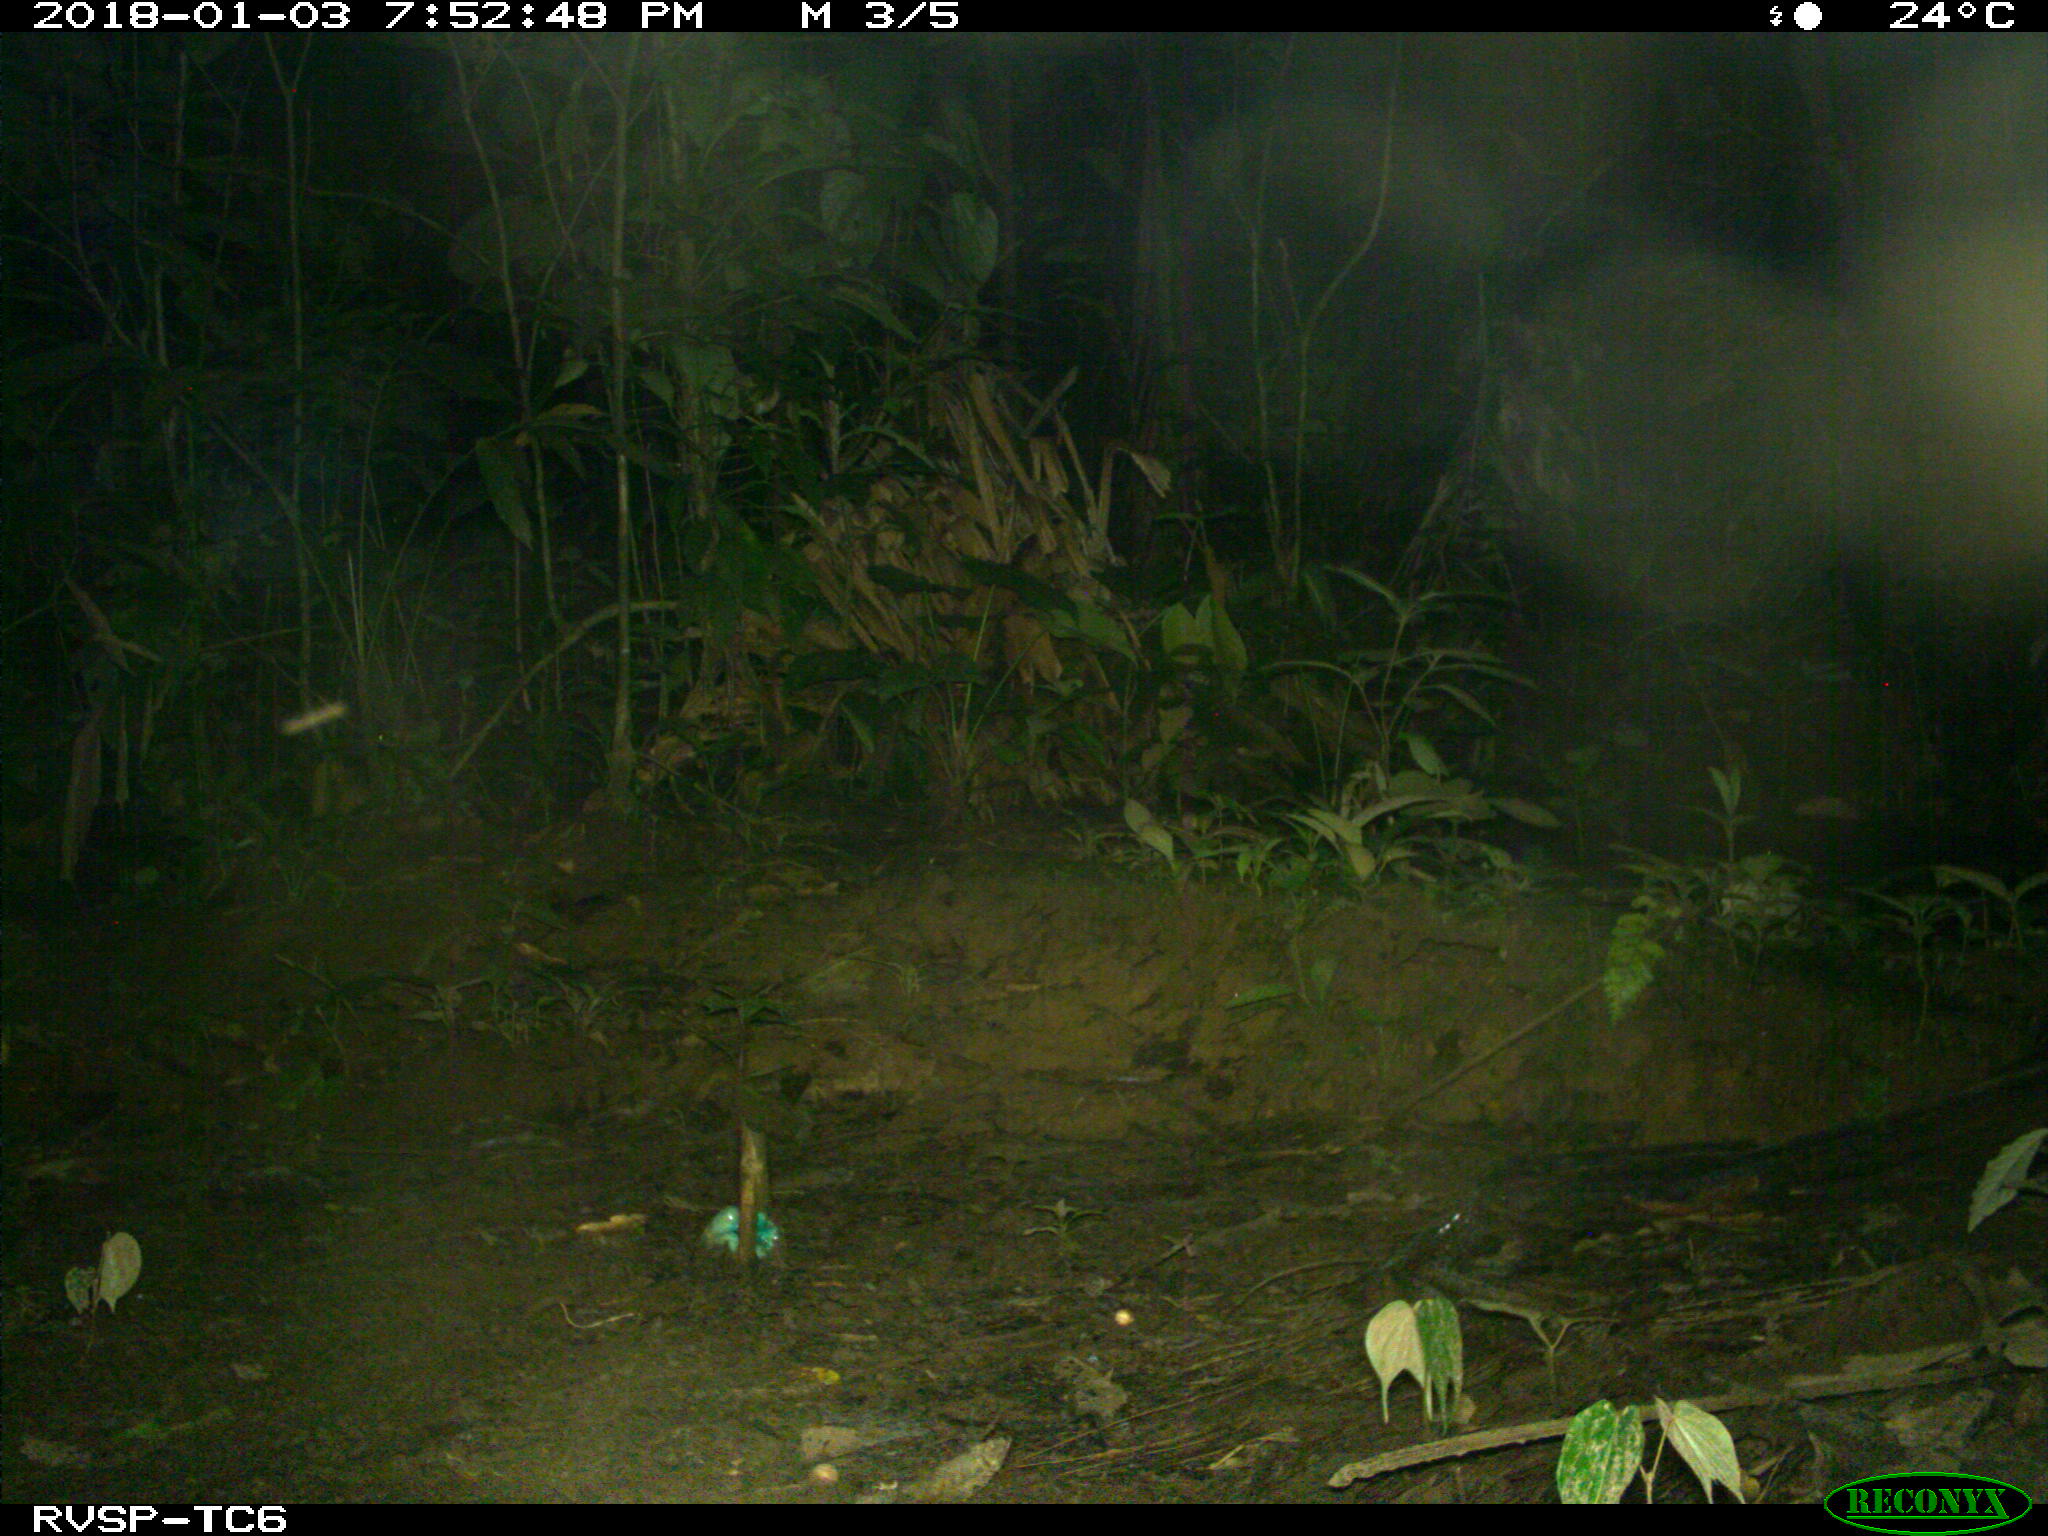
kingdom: Animalia
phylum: Chordata
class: Mammalia
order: Rodentia
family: Cuniculidae
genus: Cuniculus
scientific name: Cuniculus paca
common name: Lowland paca
